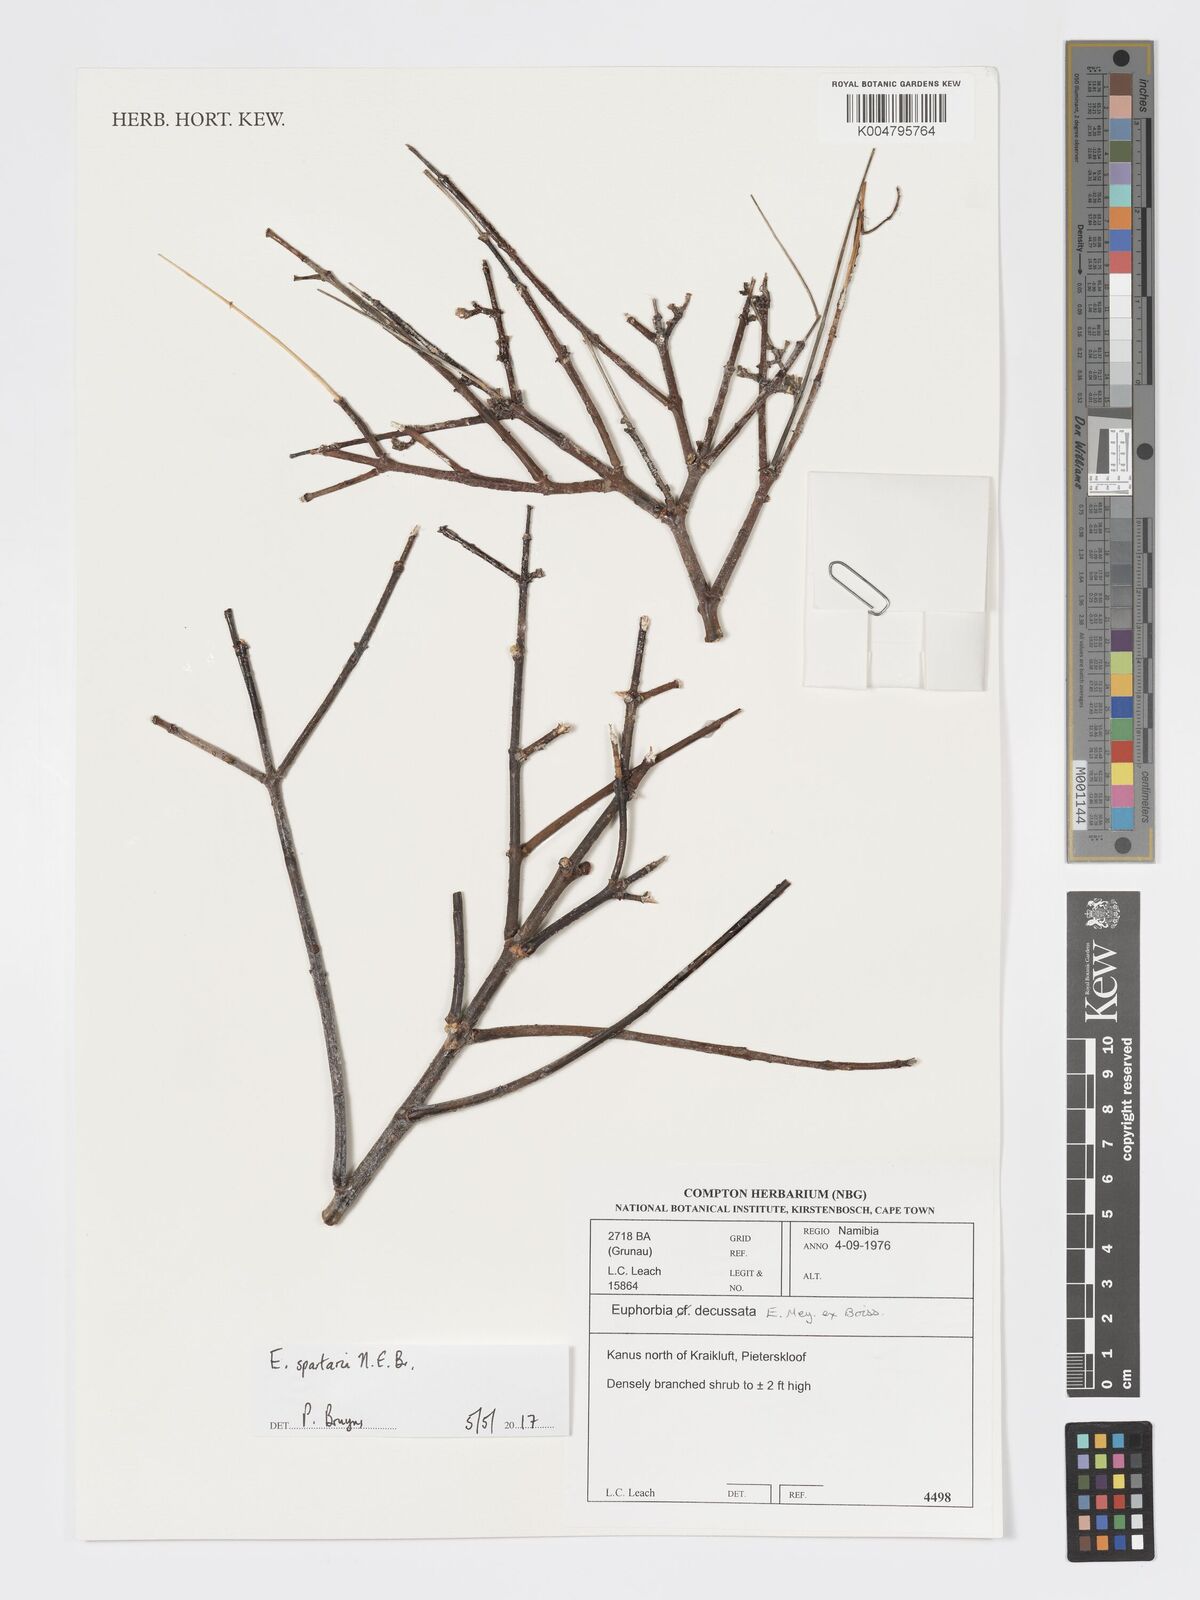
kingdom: Plantae
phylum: Tracheophyta
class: Magnoliopsida
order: Malpighiales
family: Euphorbiaceae
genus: Euphorbia
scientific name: Euphorbia spartaria
